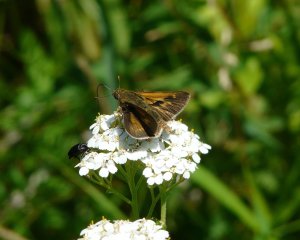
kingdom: Animalia
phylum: Arthropoda
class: Insecta
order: Lepidoptera
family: Hesperiidae
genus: Polites
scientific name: Polites
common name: Crossline Skipper
